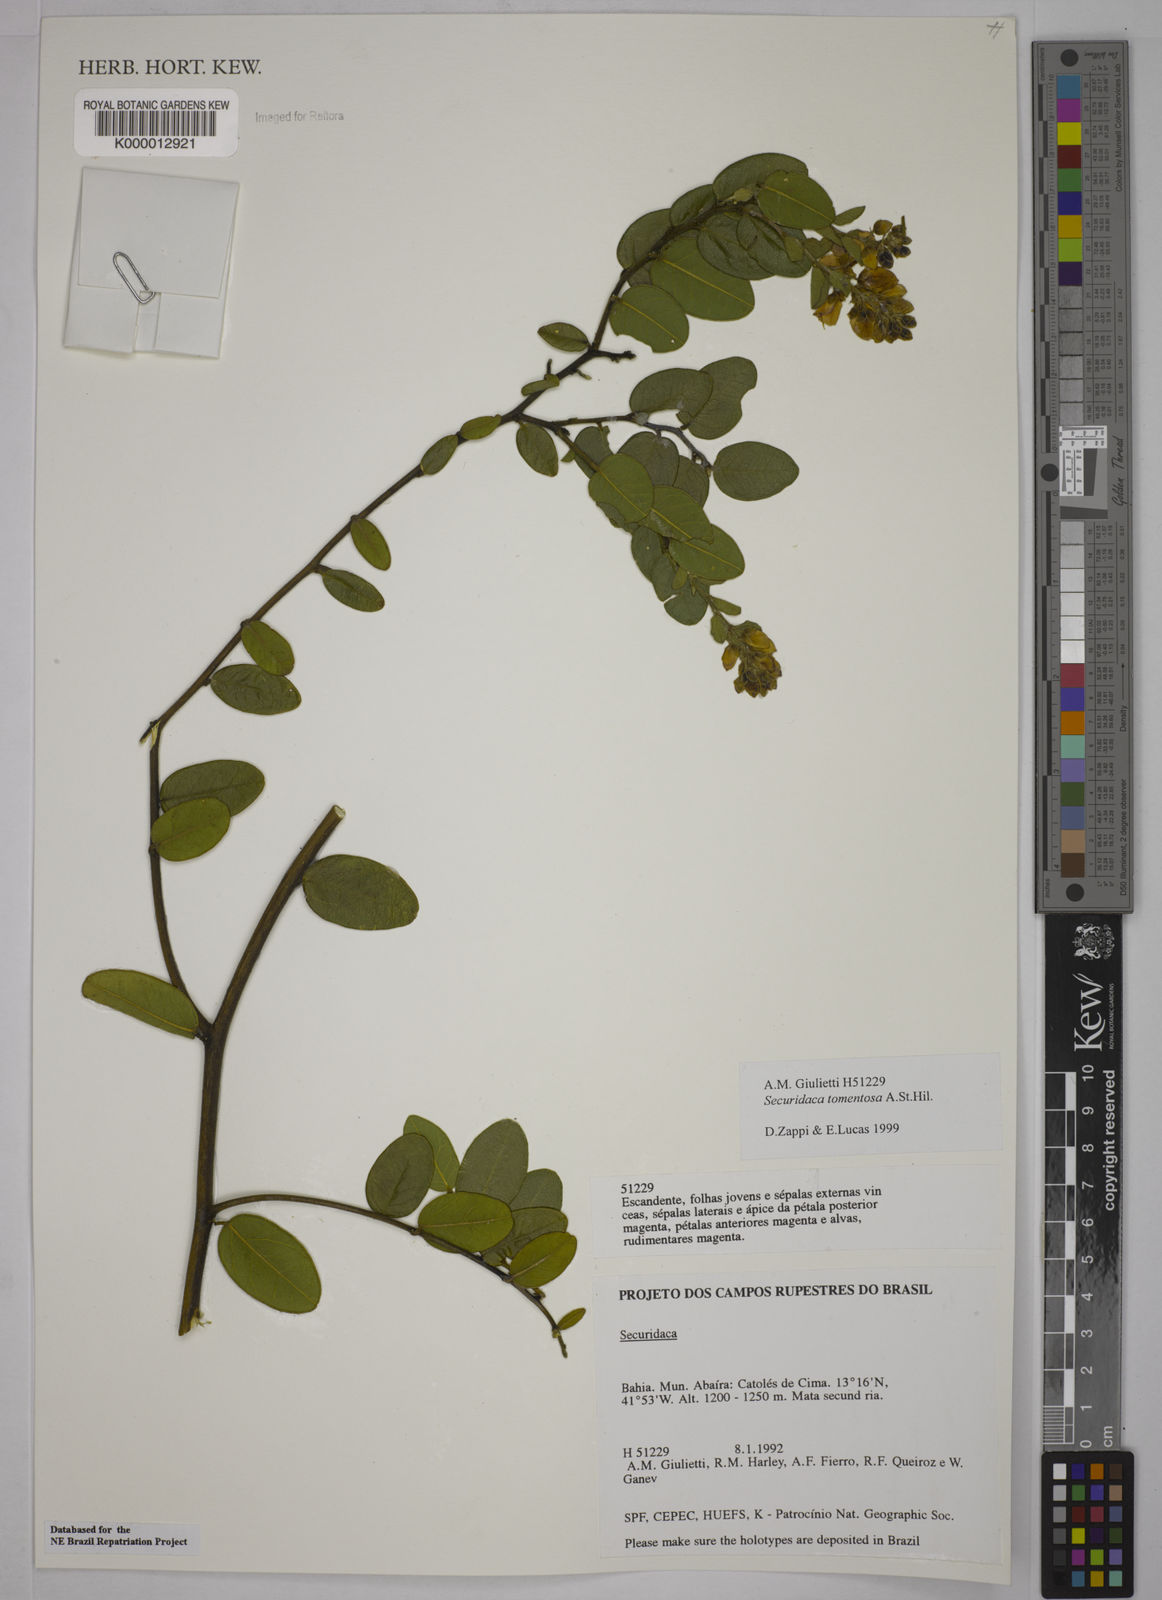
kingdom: Plantae
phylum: Tracheophyta
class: Magnoliopsida
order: Fabales
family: Polygalaceae
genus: Securidaca
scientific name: Securidaca tomentosa
